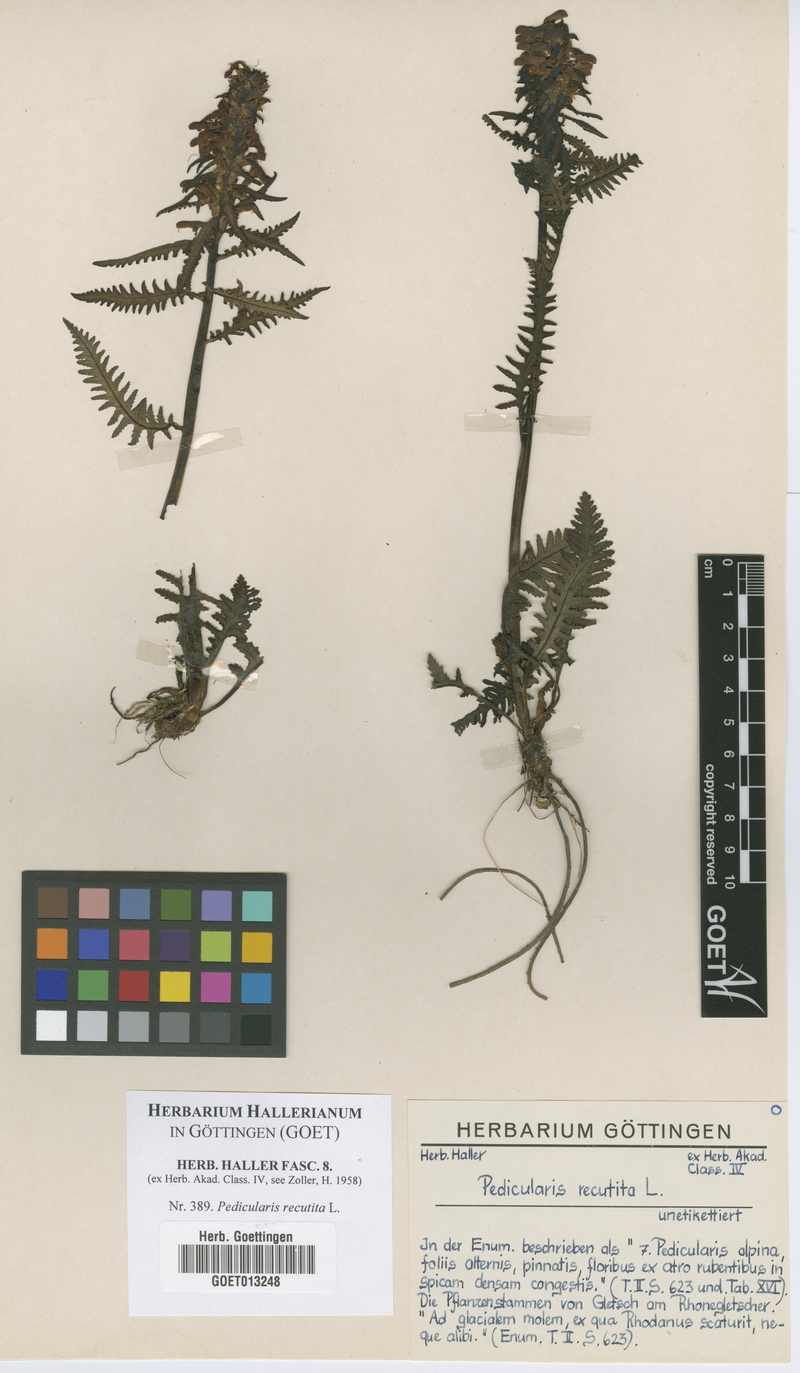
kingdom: Plantae
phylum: Tracheophyta
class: Magnoliopsida
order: Lamiales
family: Orobanchaceae
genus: Pedicularis
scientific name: Pedicularis recutita
